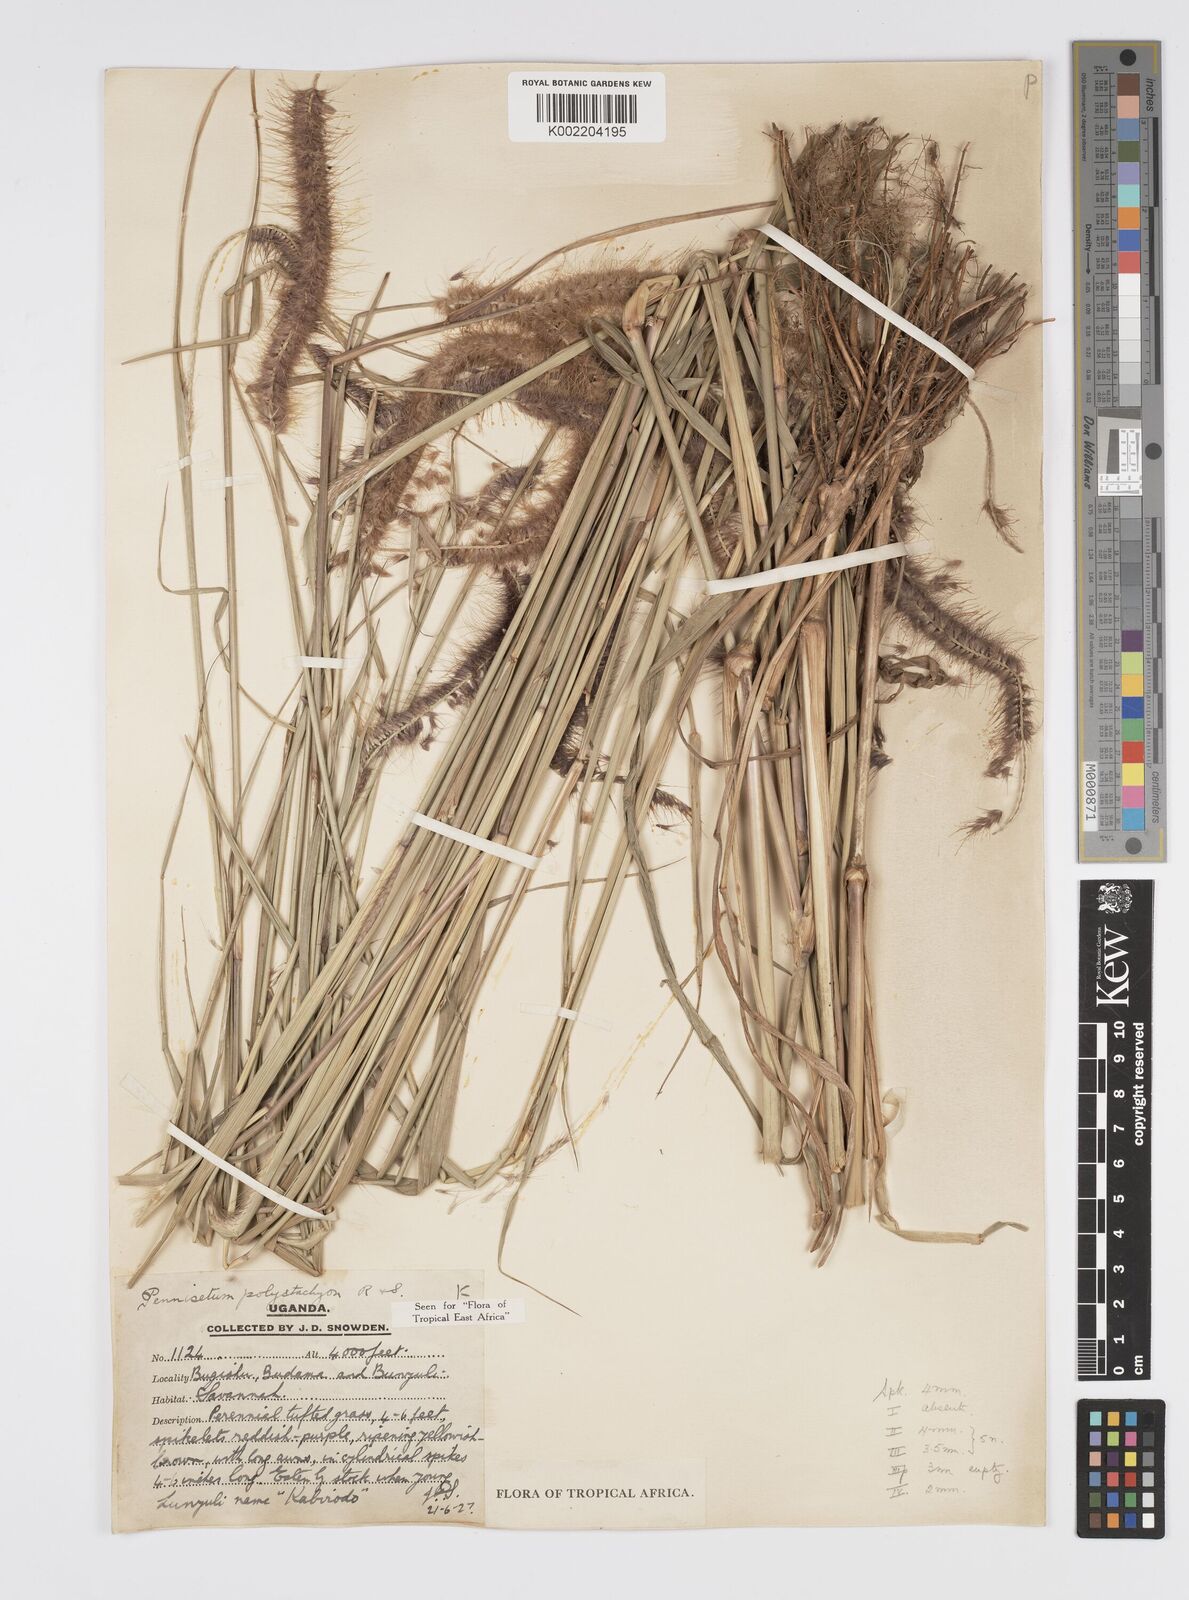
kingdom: Plantae
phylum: Tracheophyta
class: Liliopsida
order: Poales
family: Poaceae
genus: Setaria
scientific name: Setaria parviflora
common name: Knotroot bristle-grass
